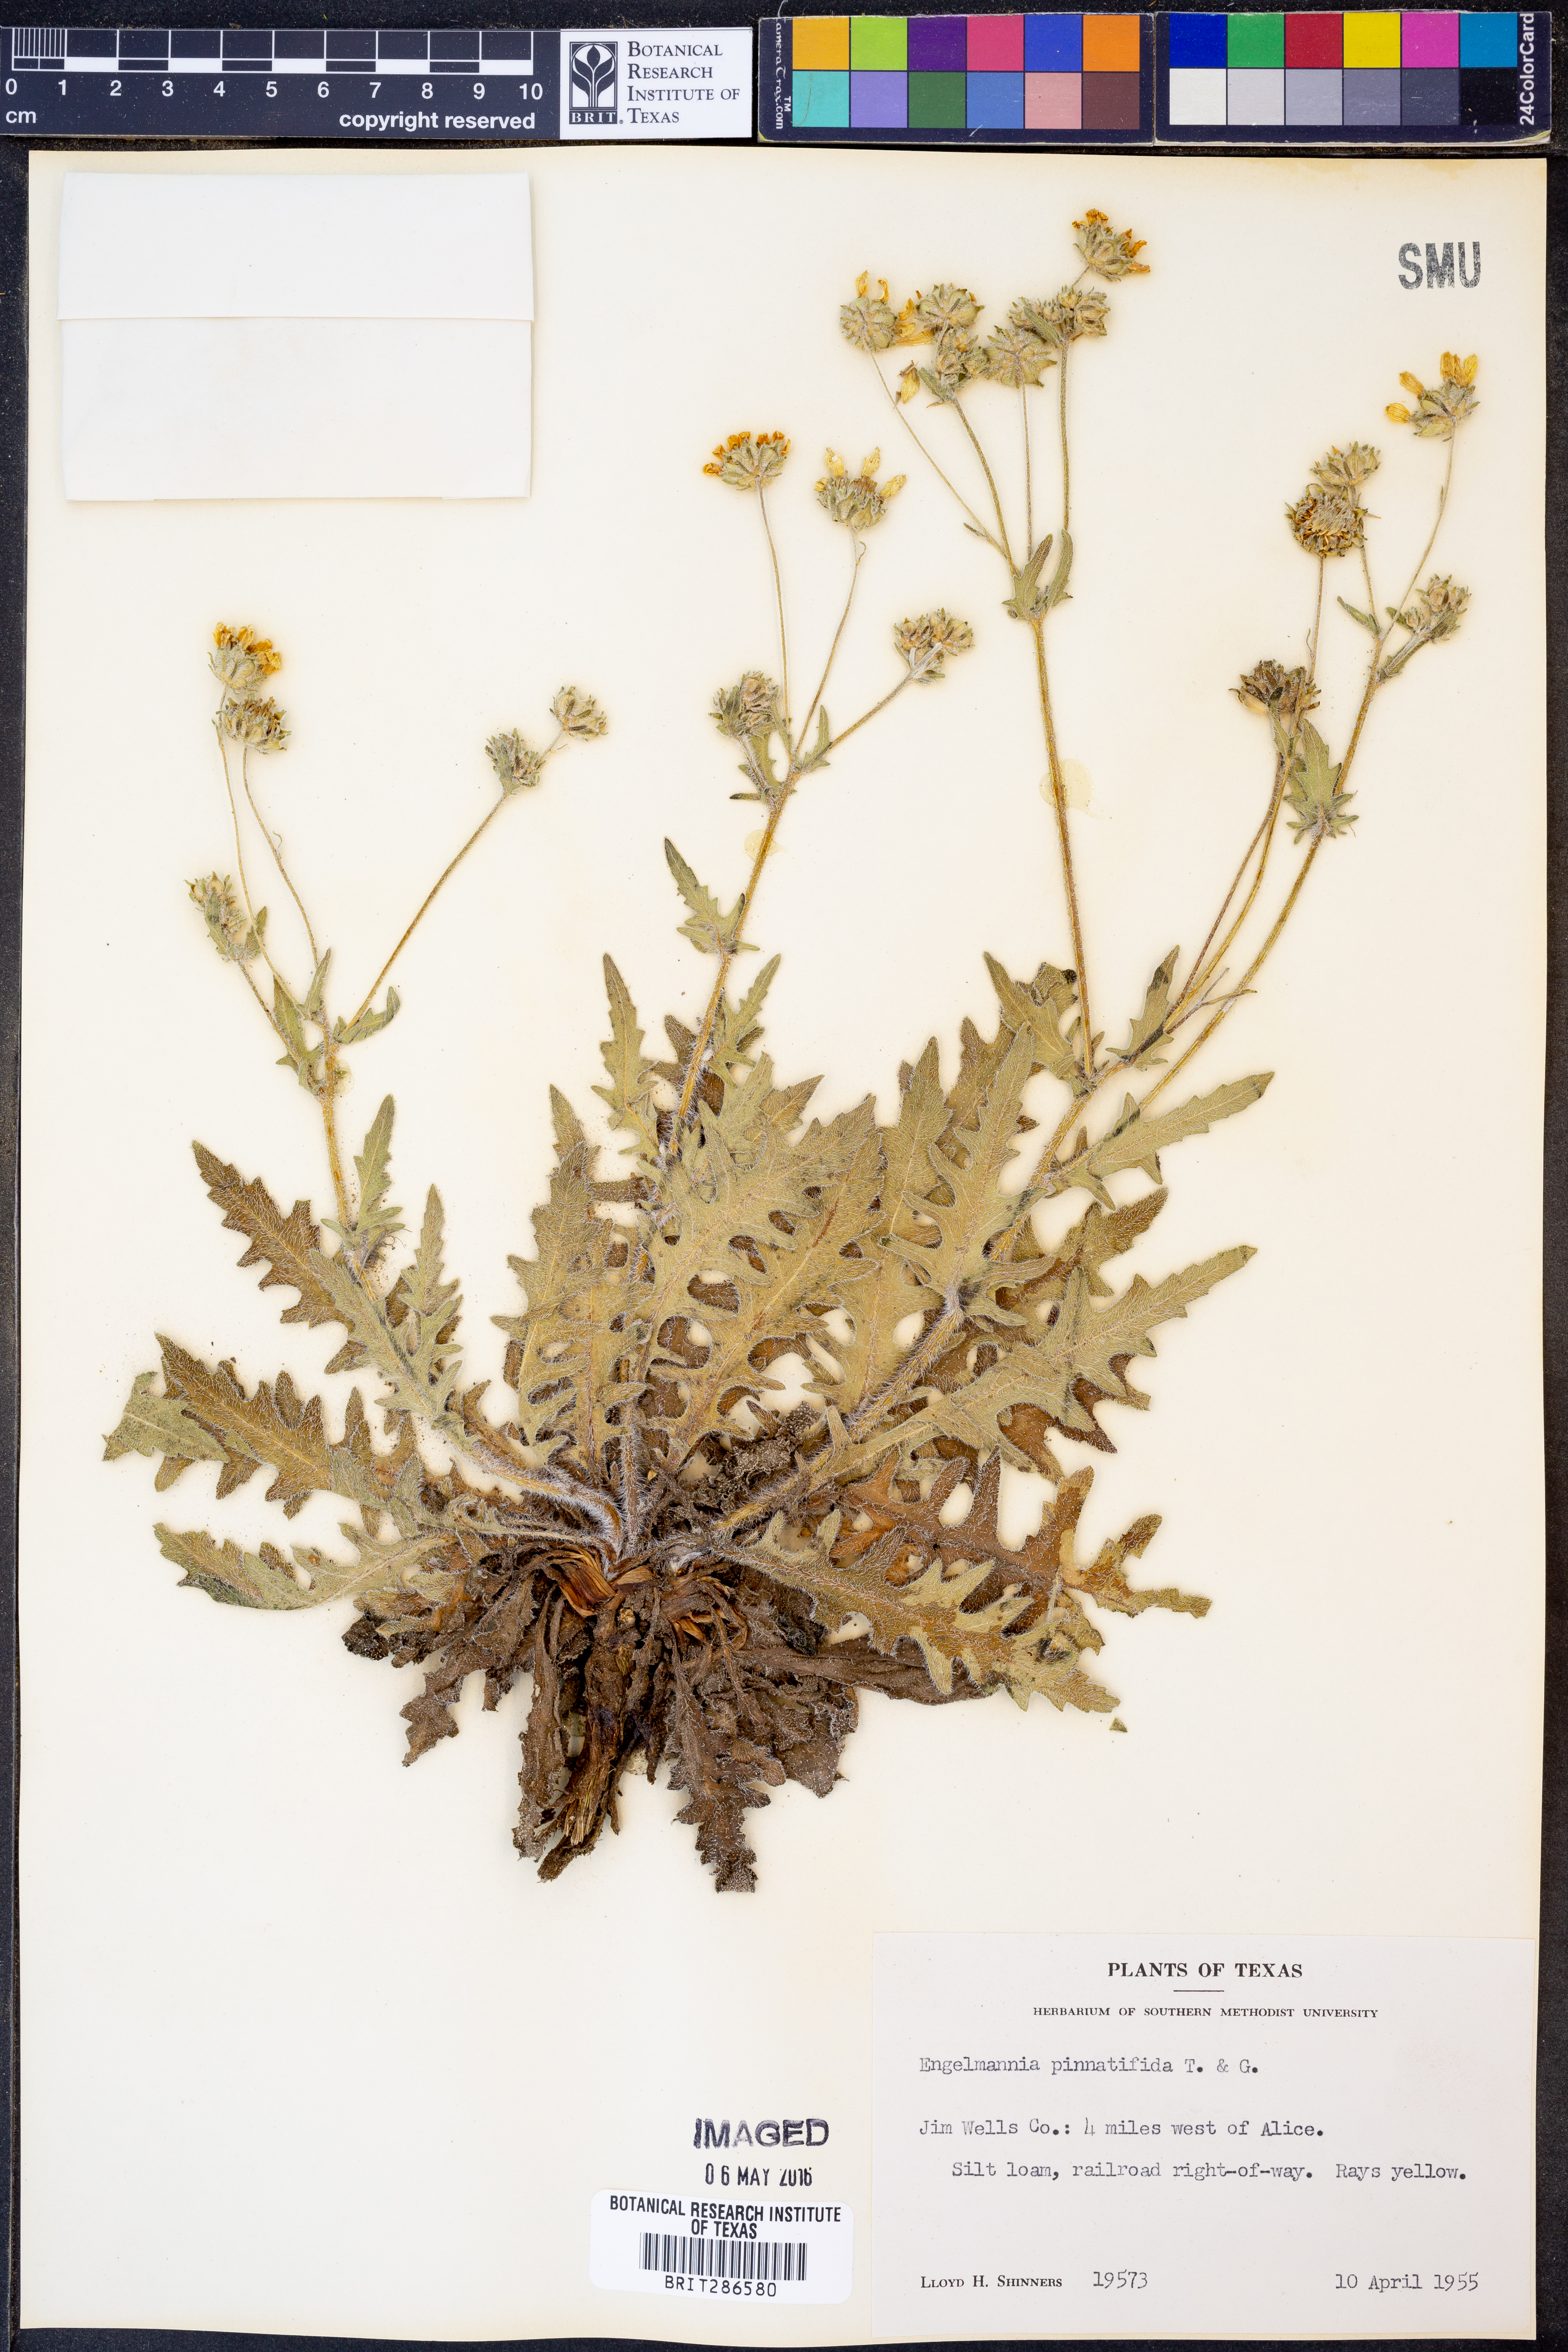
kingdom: Plantae
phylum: Tracheophyta
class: Magnoliopsida
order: Asterales
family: Asteraceae
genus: Engelmannia
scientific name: Engelmannia peristenia
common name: Engelmann's daisy
